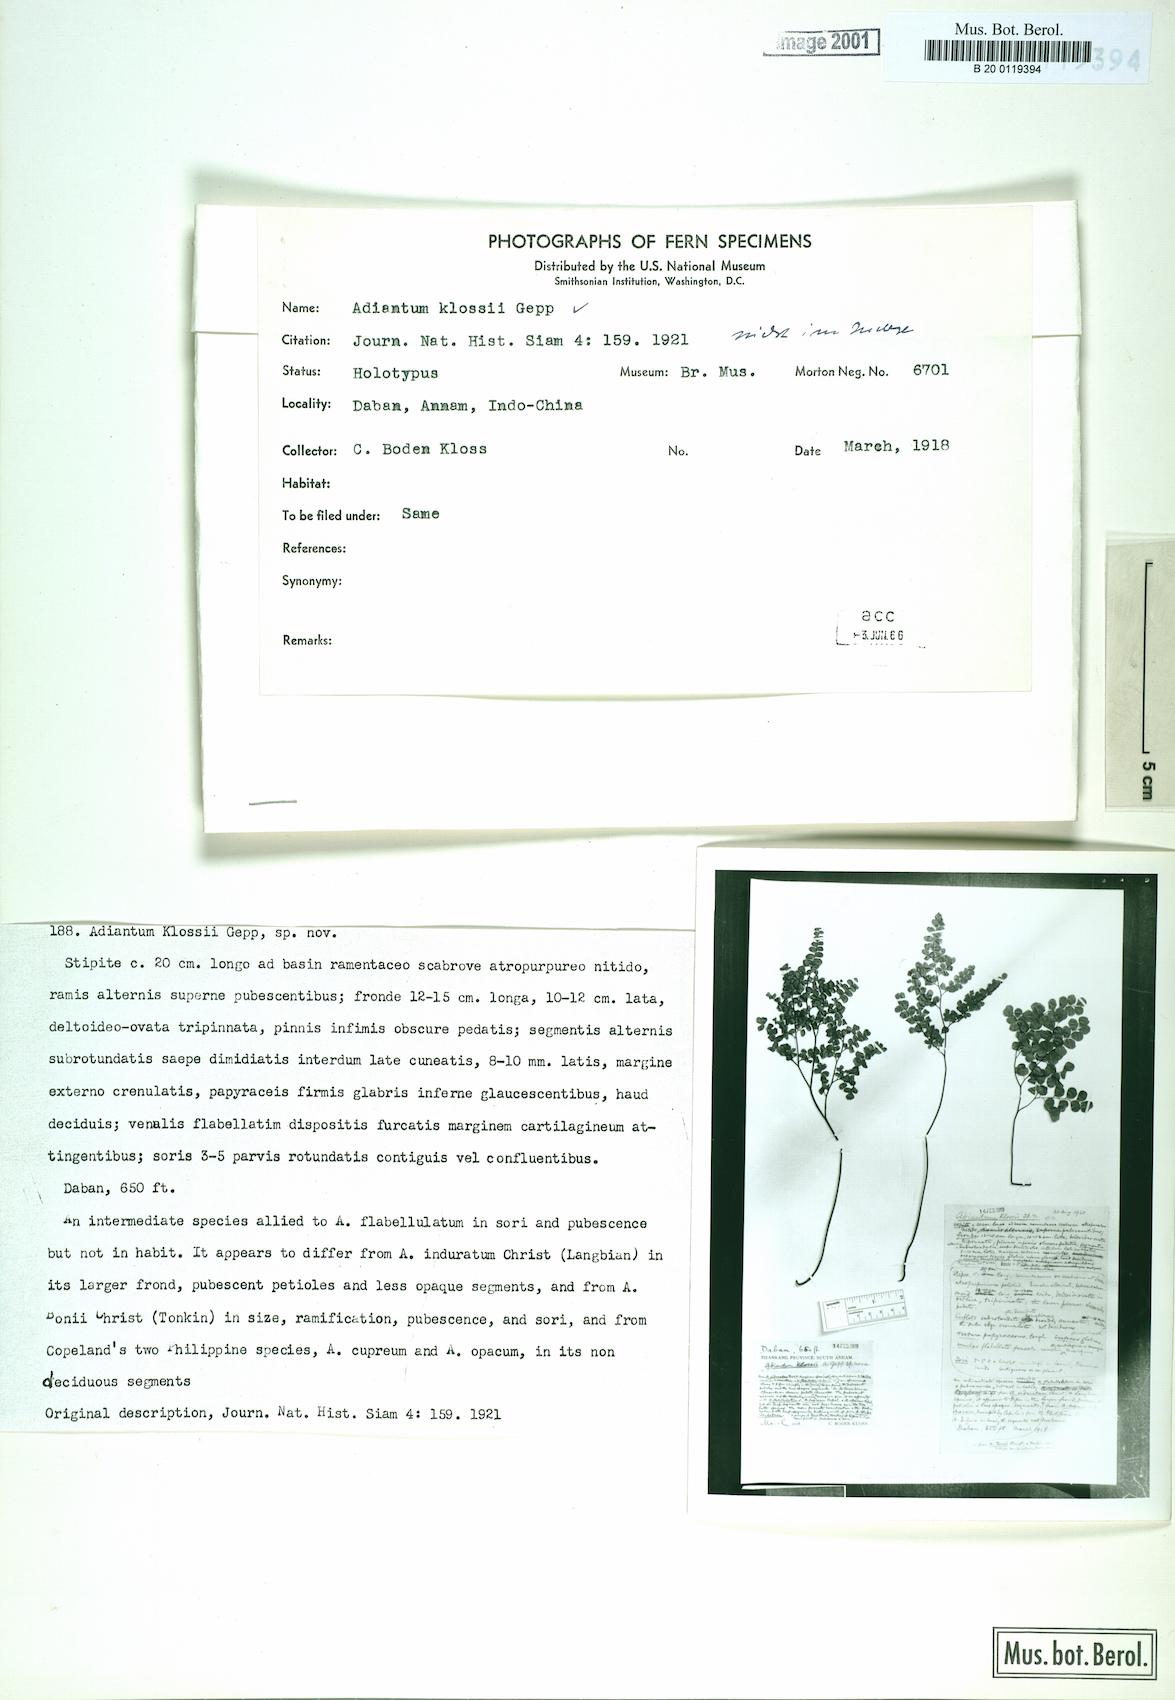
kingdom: Plantae
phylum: Tracheophyta
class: Polypodiopsida
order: Polypodiales
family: Pteridaceae
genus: Adiantum
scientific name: Adiantum klossii
